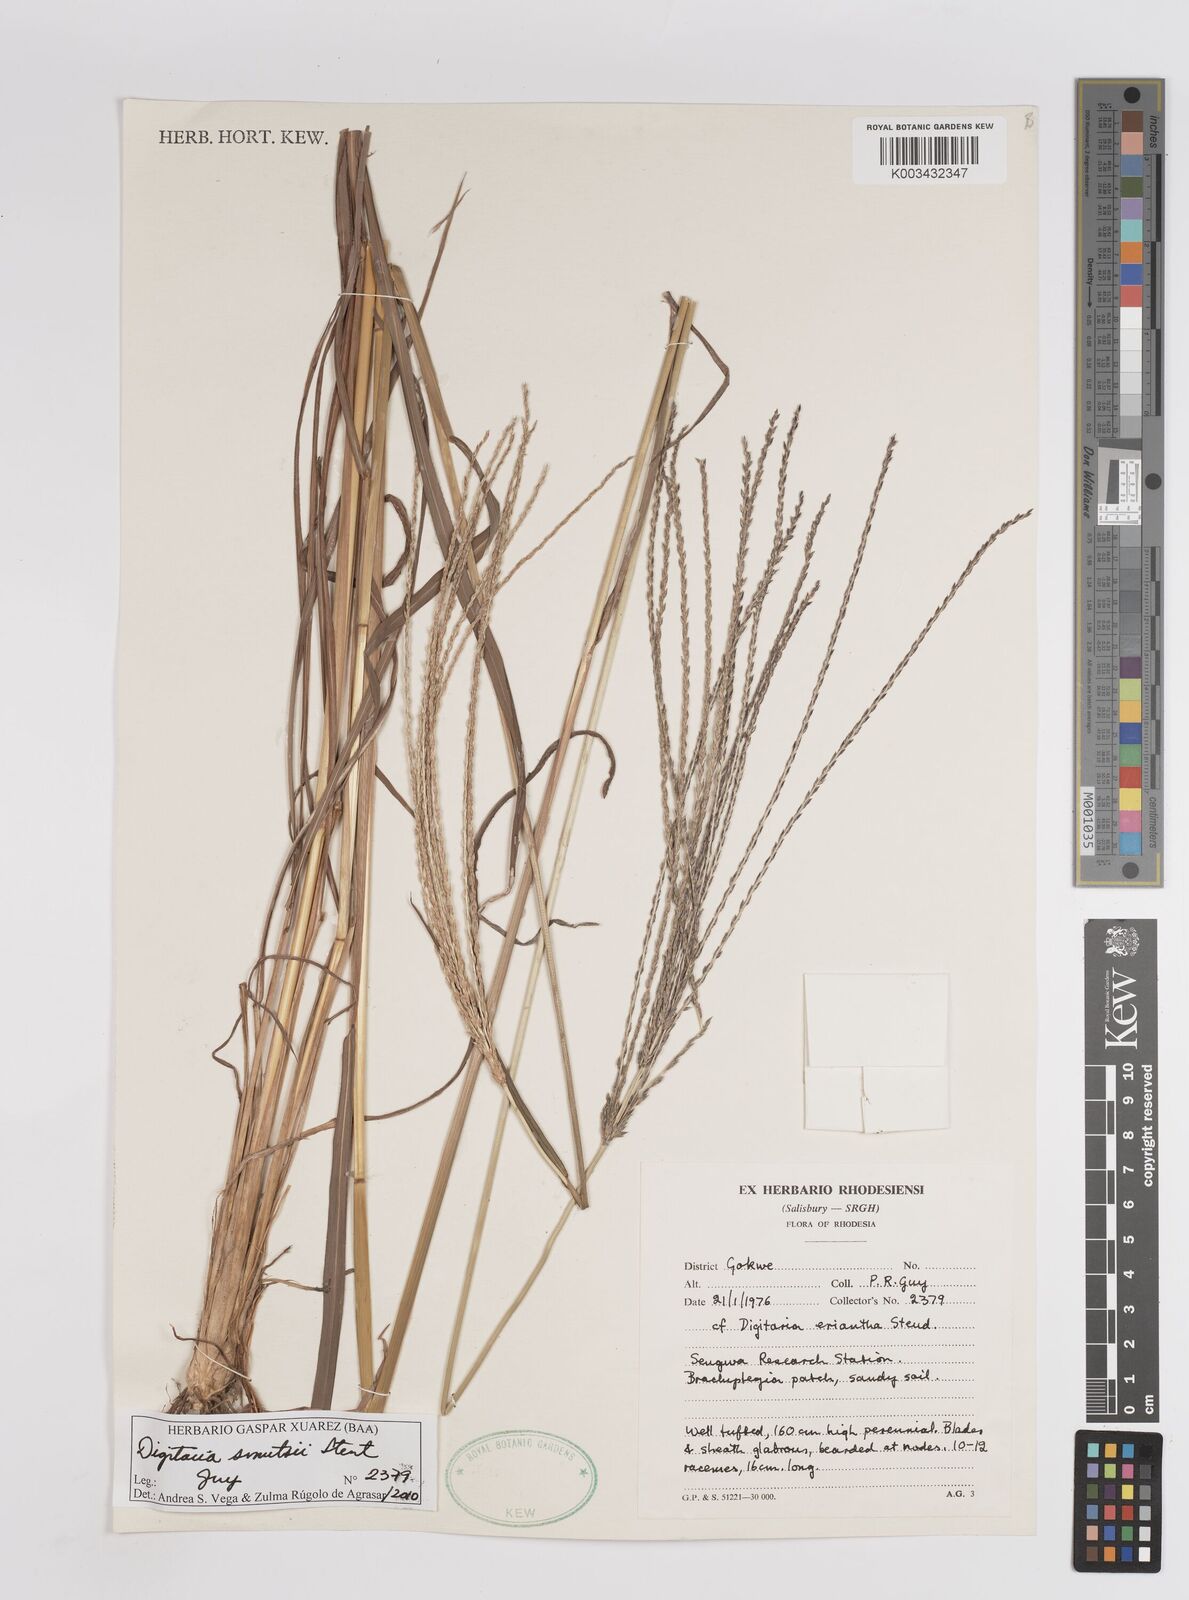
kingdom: Plantae
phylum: Tracheophyta
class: Liliopsida
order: Poales
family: Poaceae
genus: Digitaria
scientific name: Digitaria eriantha
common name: Digitgrass
